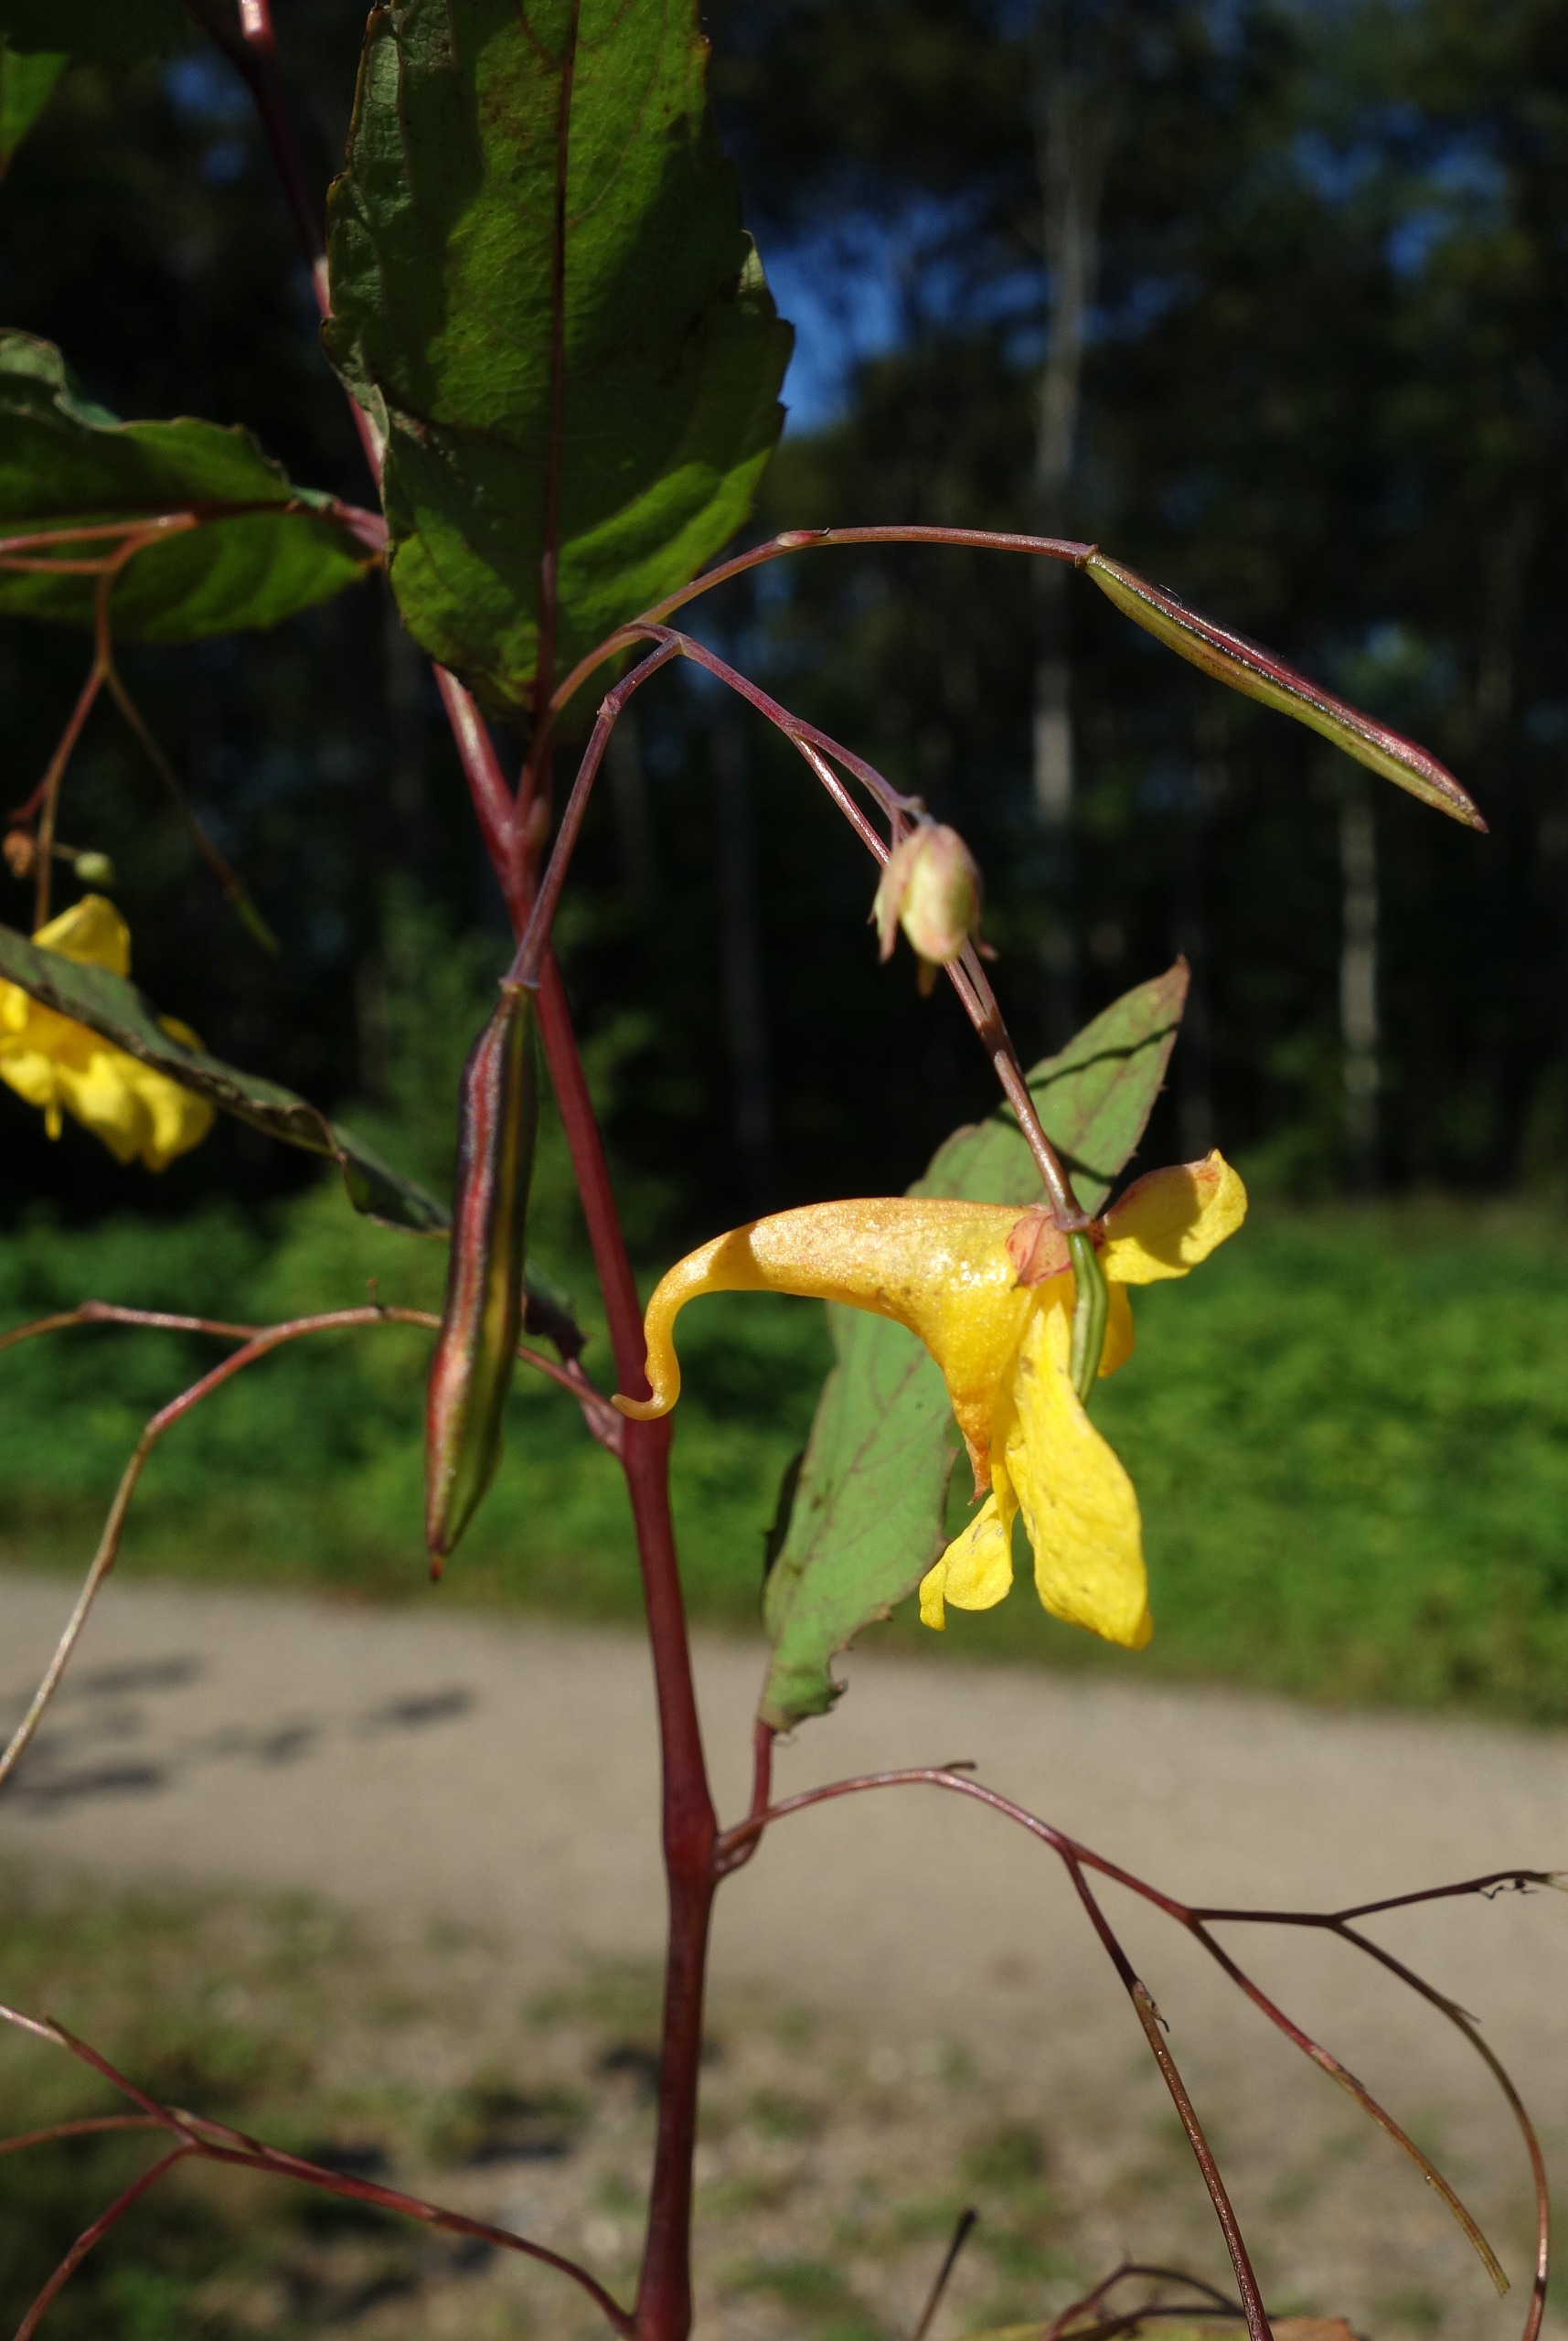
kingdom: Plantae
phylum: Tracheophyta
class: Magnoliopsida
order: Ericales
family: Balsaminaceae
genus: Impatiens
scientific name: Impatiens noli-tangere
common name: Spring-balsamin
